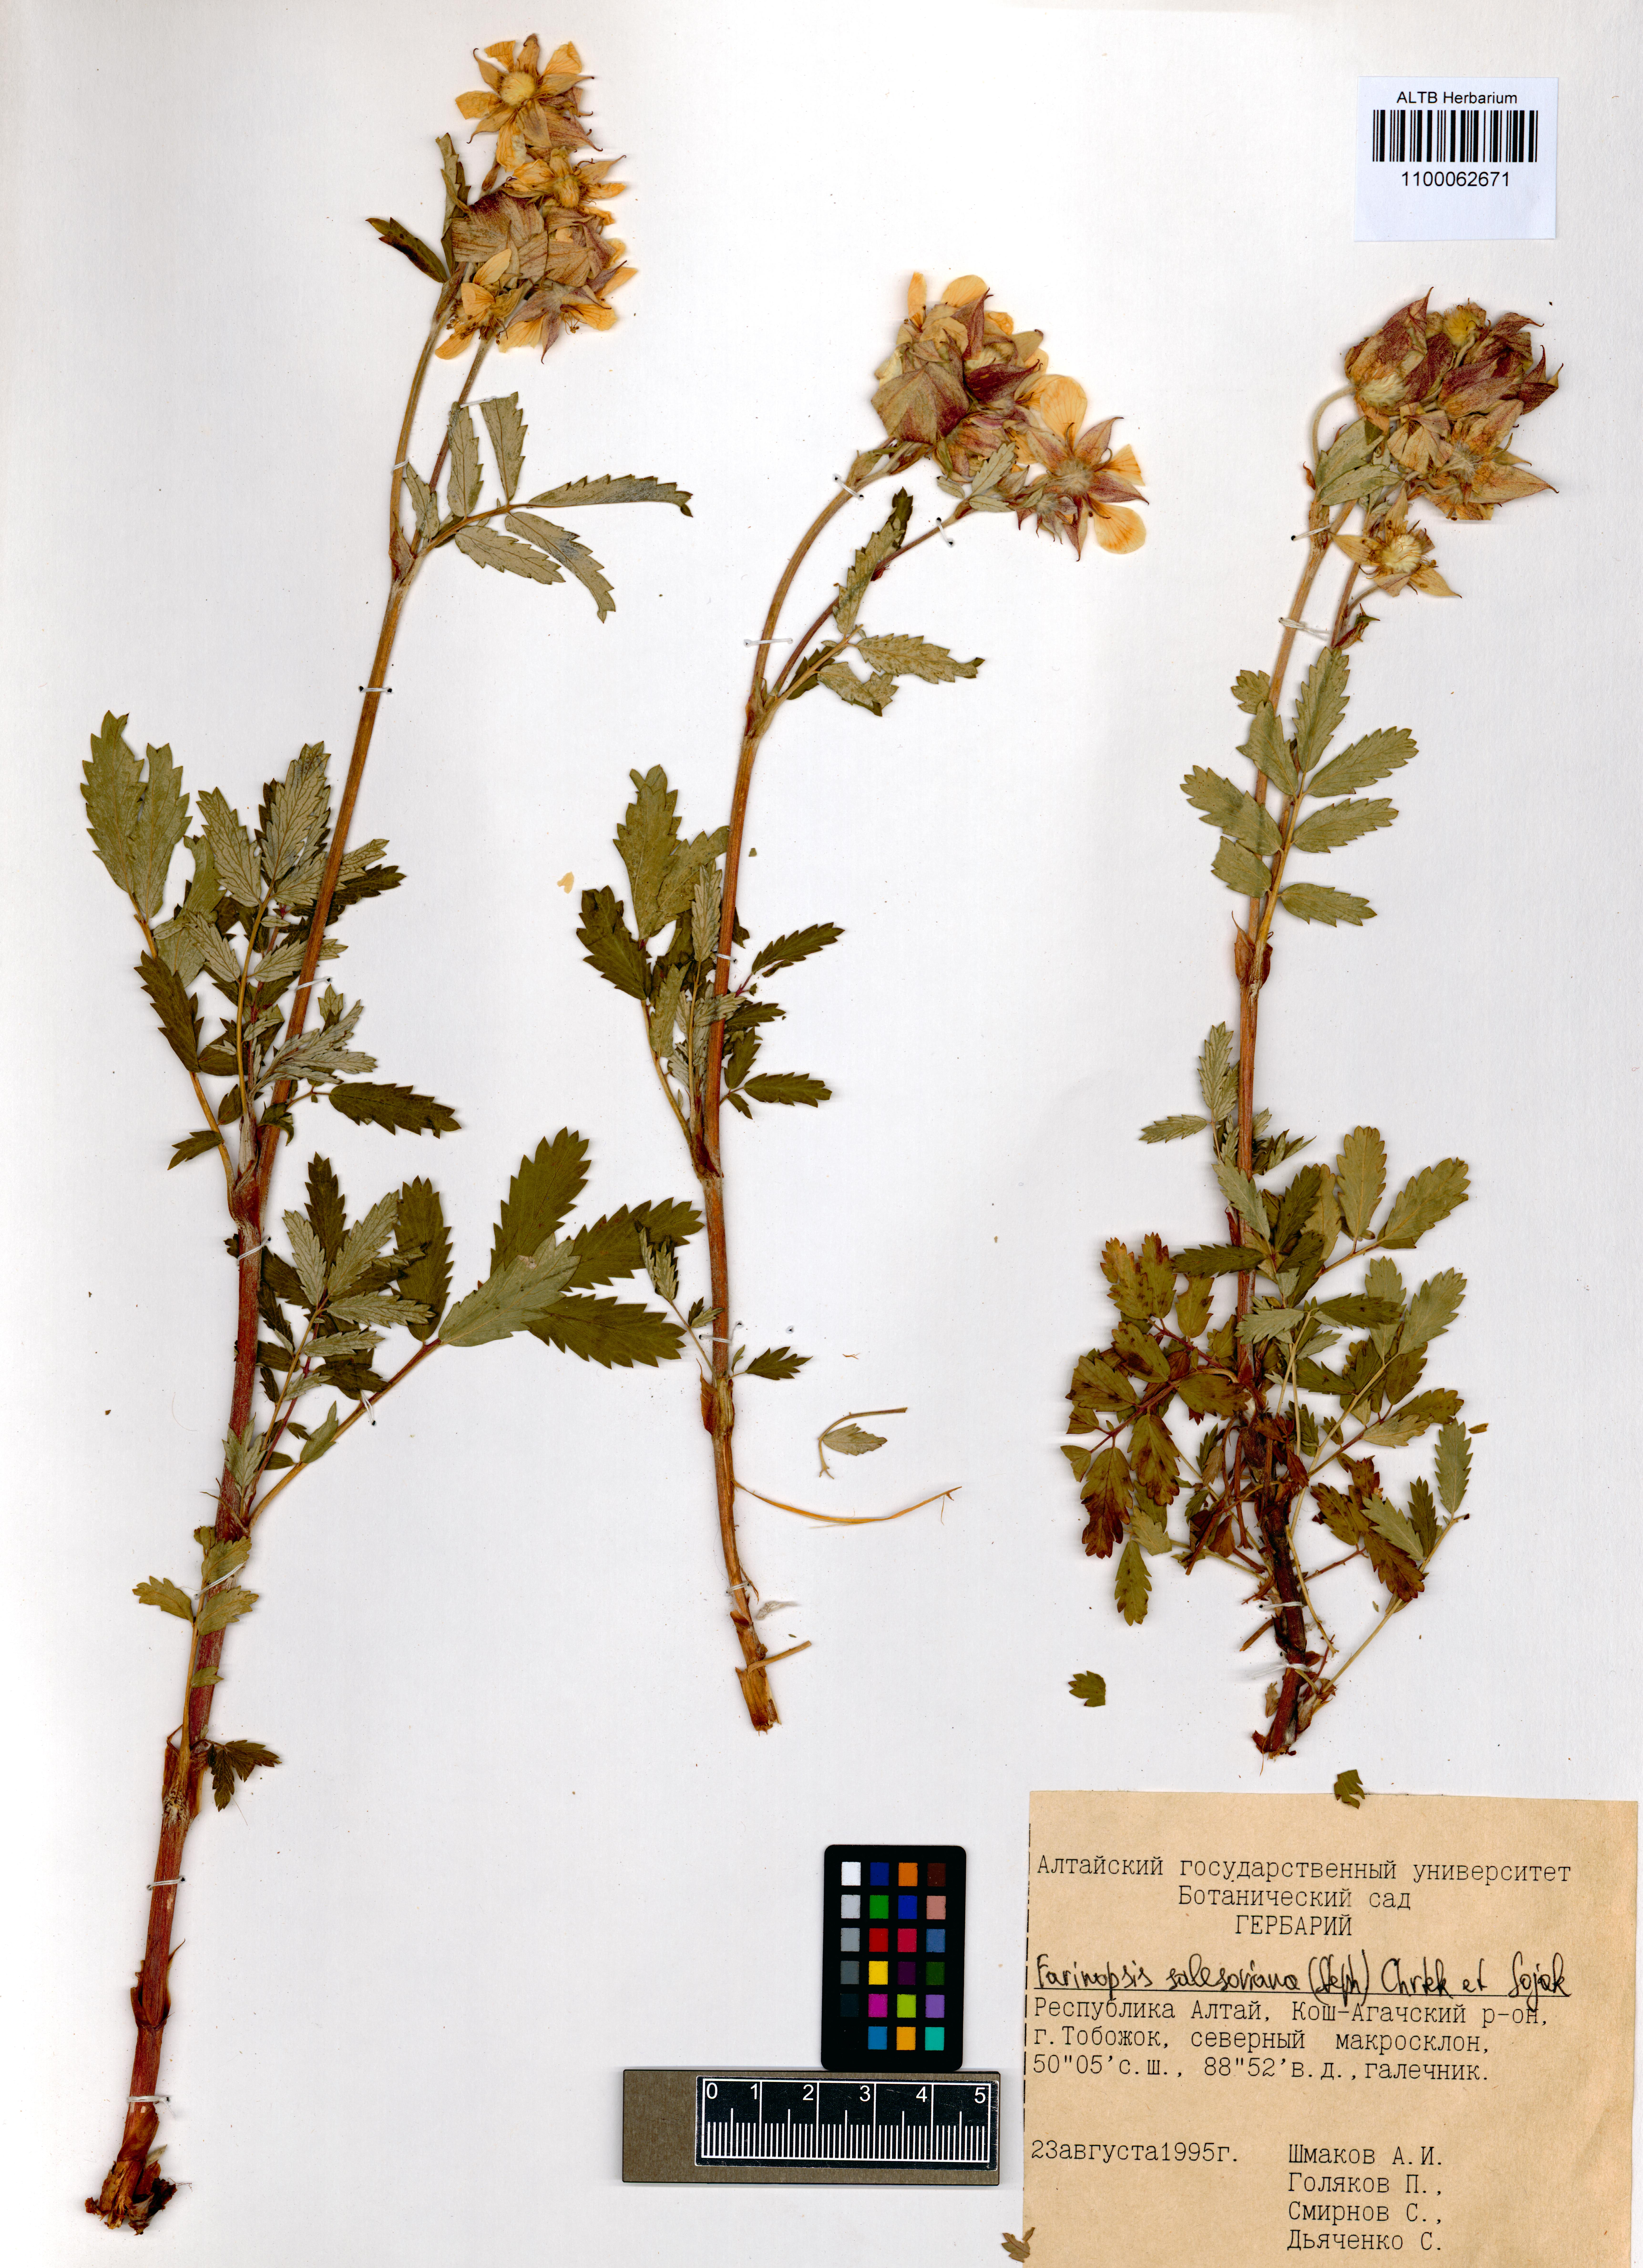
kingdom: Plantae
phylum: Tracheophyta
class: Magnoliopsida
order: Rosales
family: Rosaceae
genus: Farinopsis
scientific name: Farinopsis salesoviana
